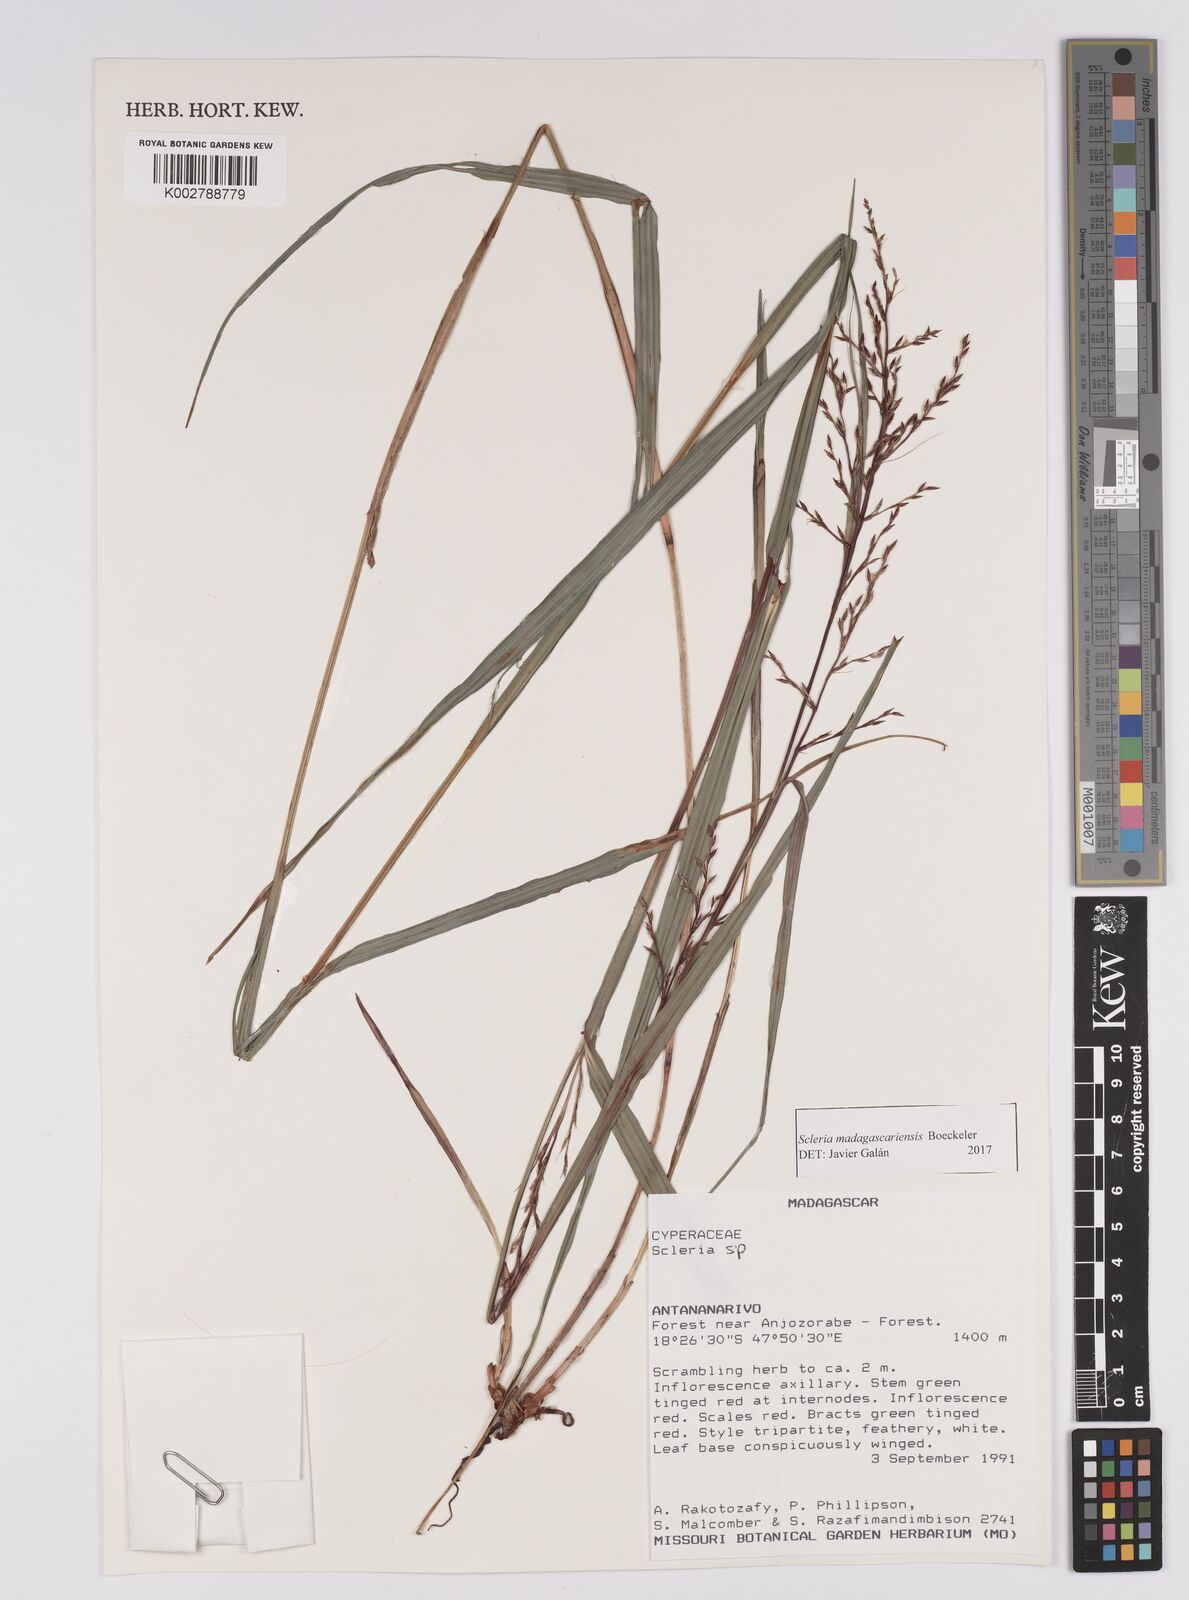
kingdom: Plantae
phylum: Tracheophyta
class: Liliopsida
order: Poales
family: Cyperaceae
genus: Scleria
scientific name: Scleria madagascariensis
